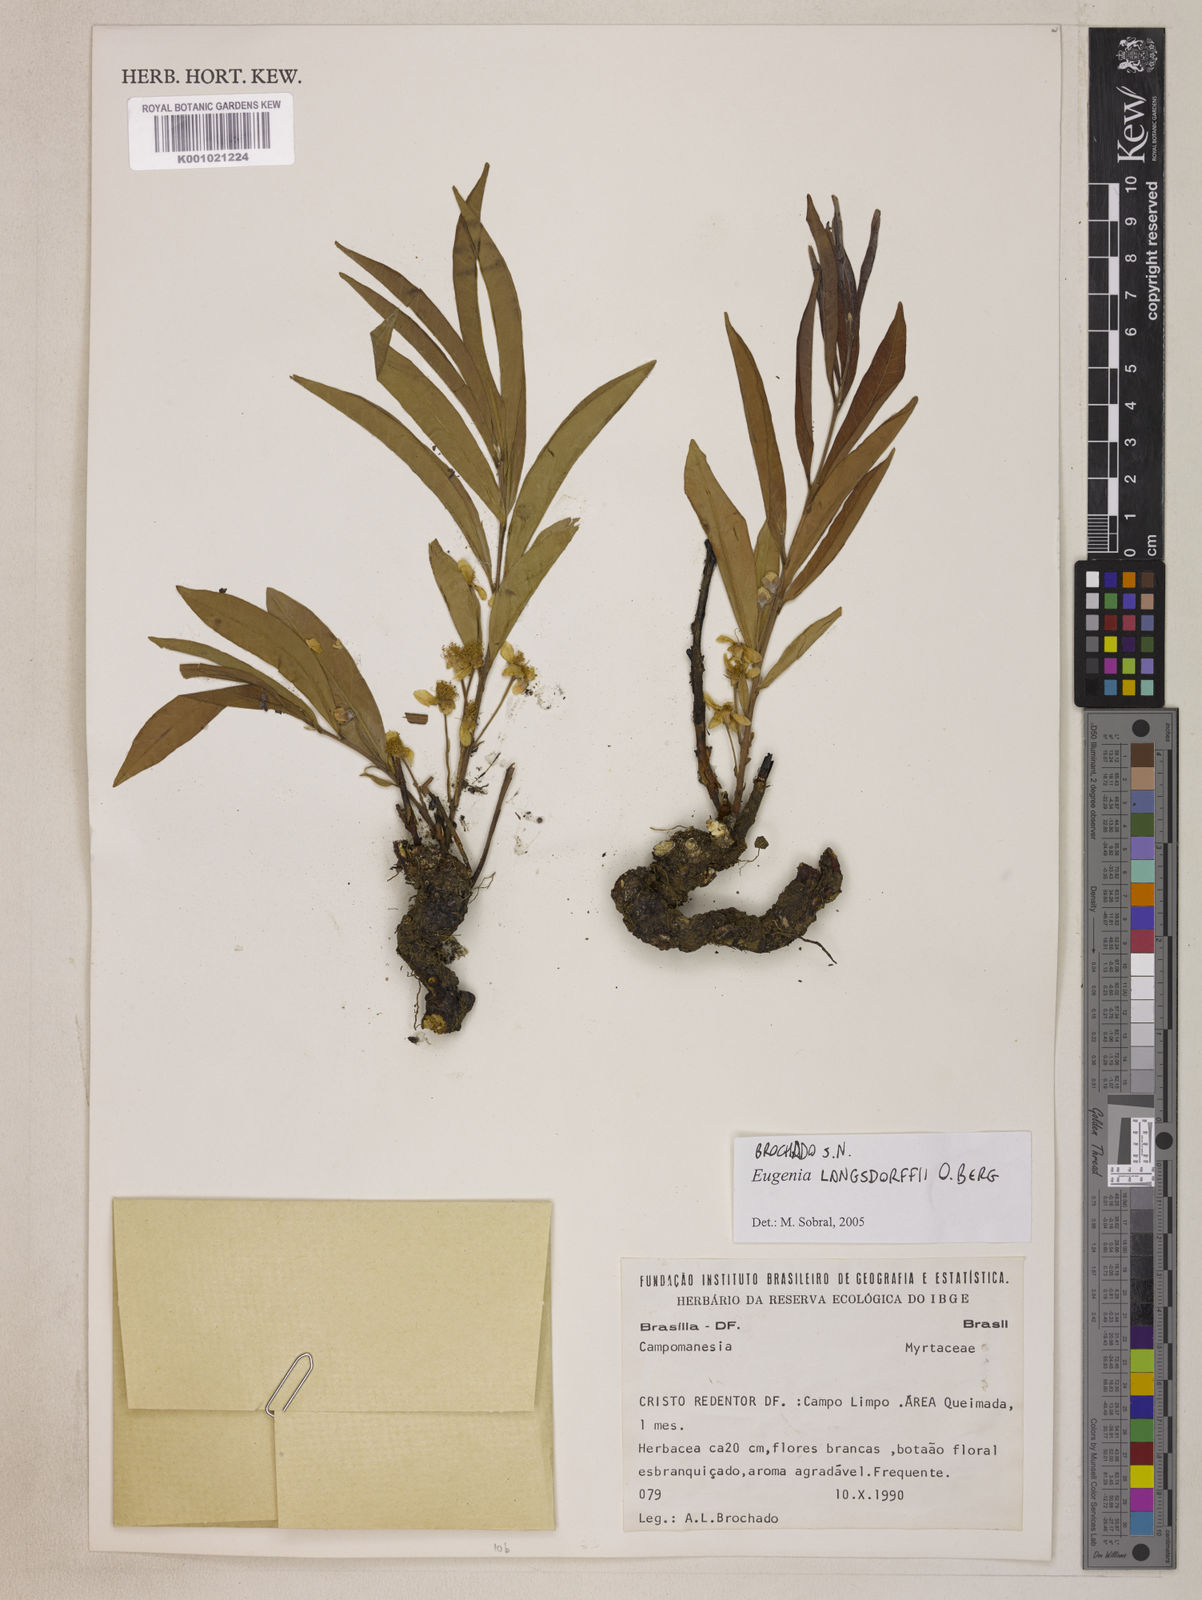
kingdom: Plantae
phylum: Tracheophyta
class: Magnoliopsida
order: Myrtales
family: Myrtaceae
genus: Eugenia
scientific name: Eugenia langsdorffii
